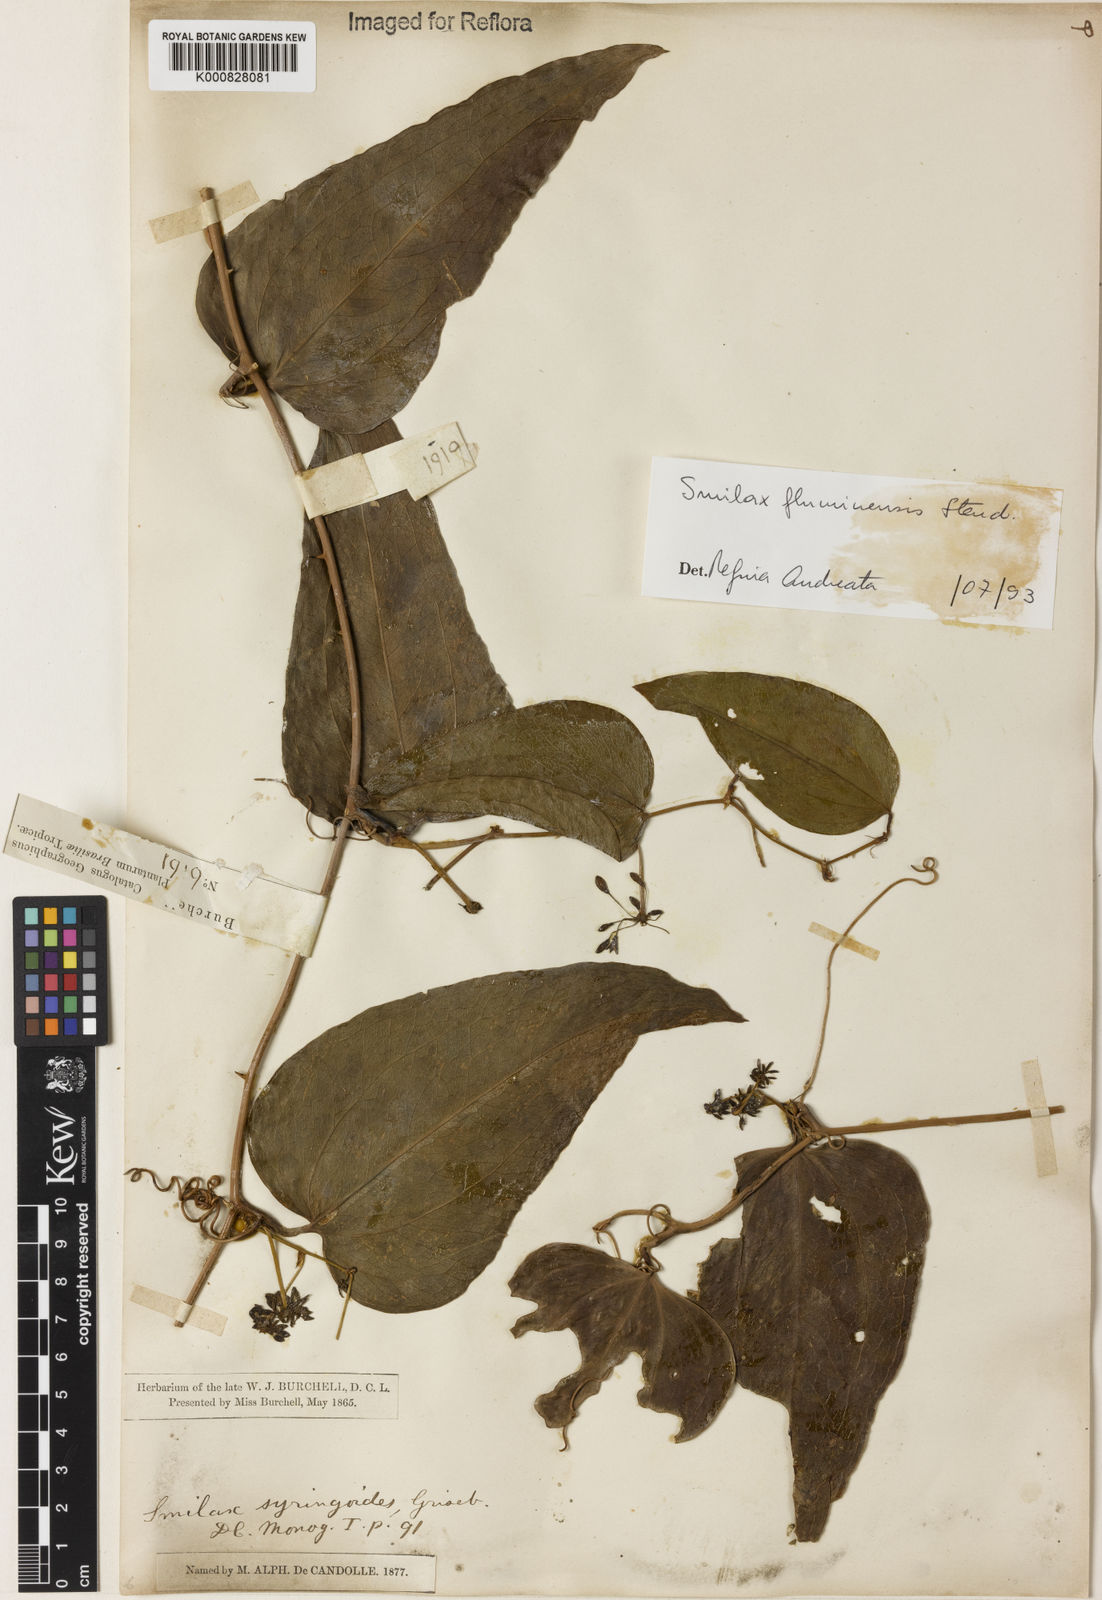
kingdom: Plantae
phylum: Tracheophyta
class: Liliopsida
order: Liliales
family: Smilacaceae
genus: Smilax
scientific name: Smilax fluminensis
